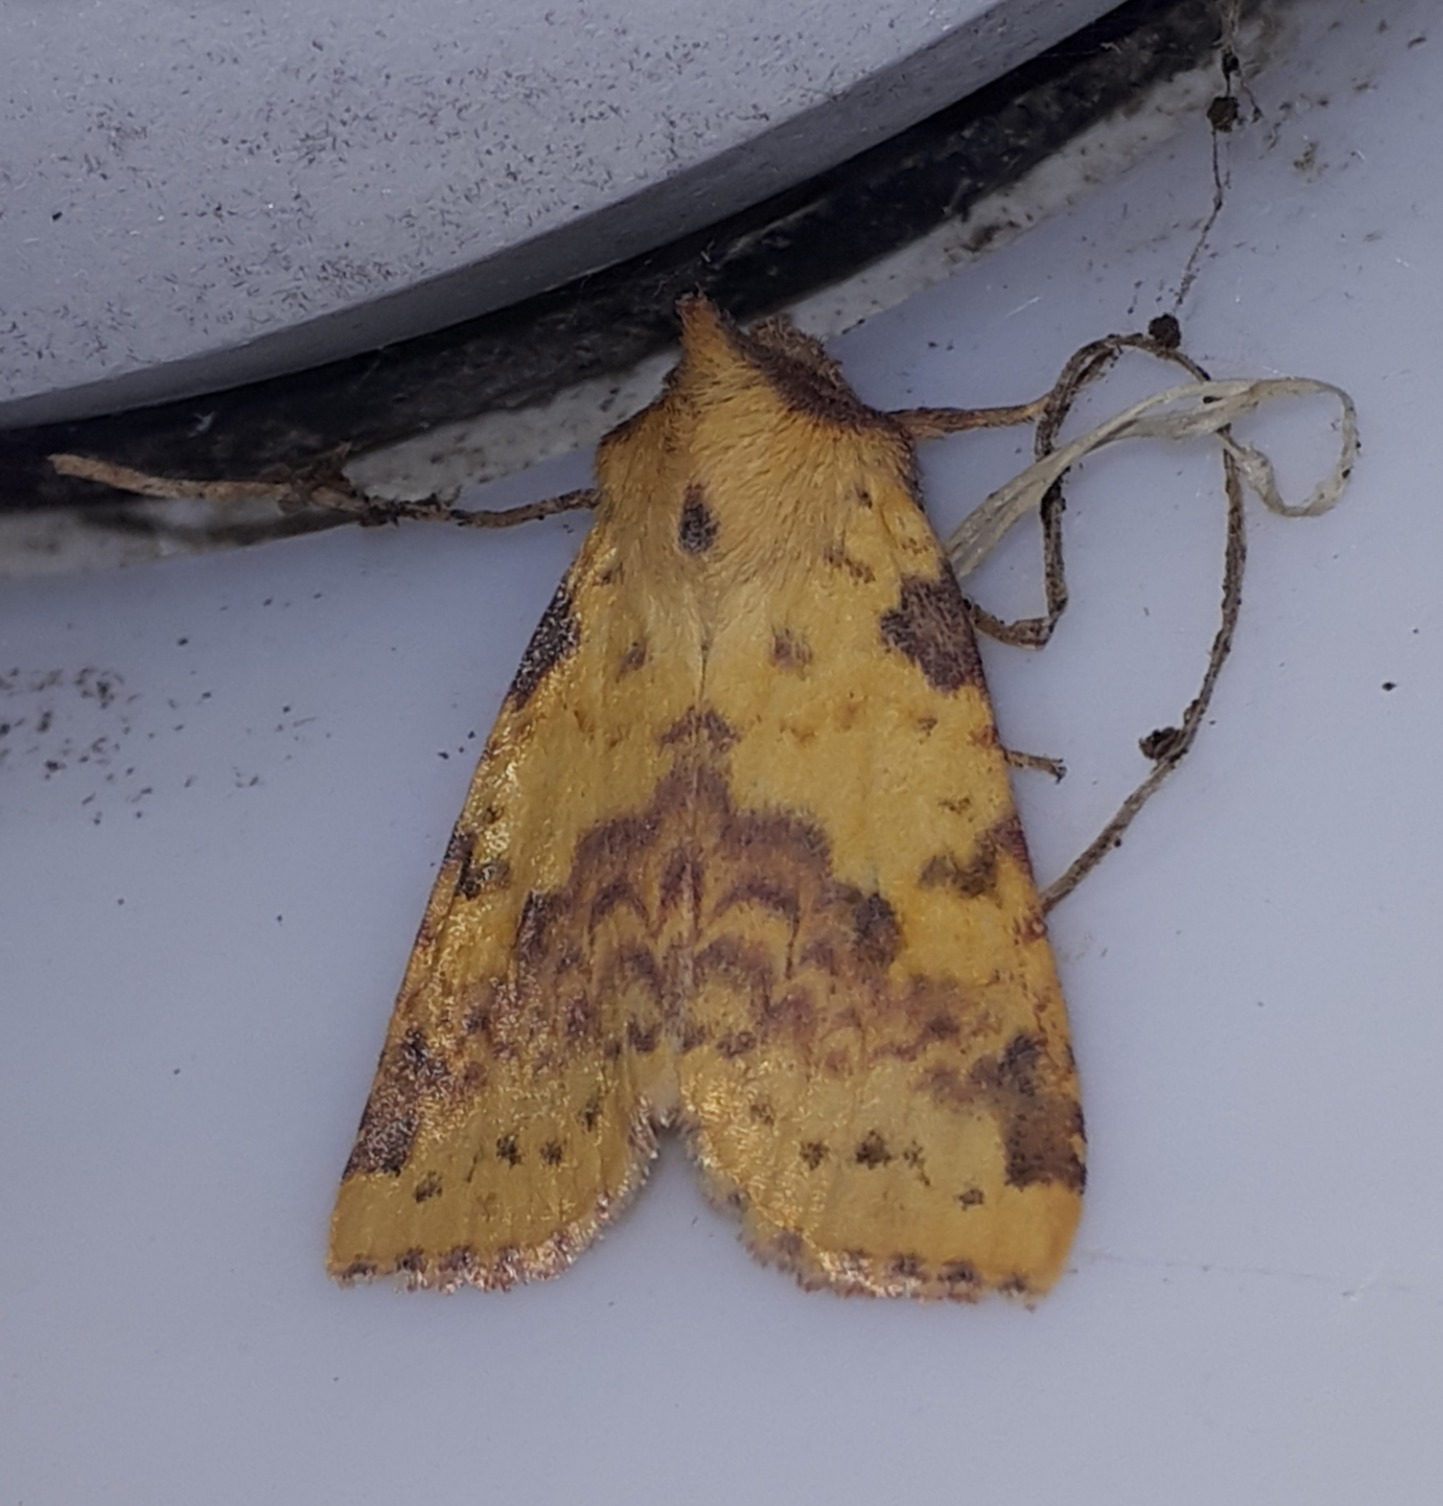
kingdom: Animalia
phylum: Arthropoda
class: Insecta
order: Lepidoptera
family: Noctuidae
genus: Xanthia
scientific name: Xanthia togata
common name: Toga-septemberugle
